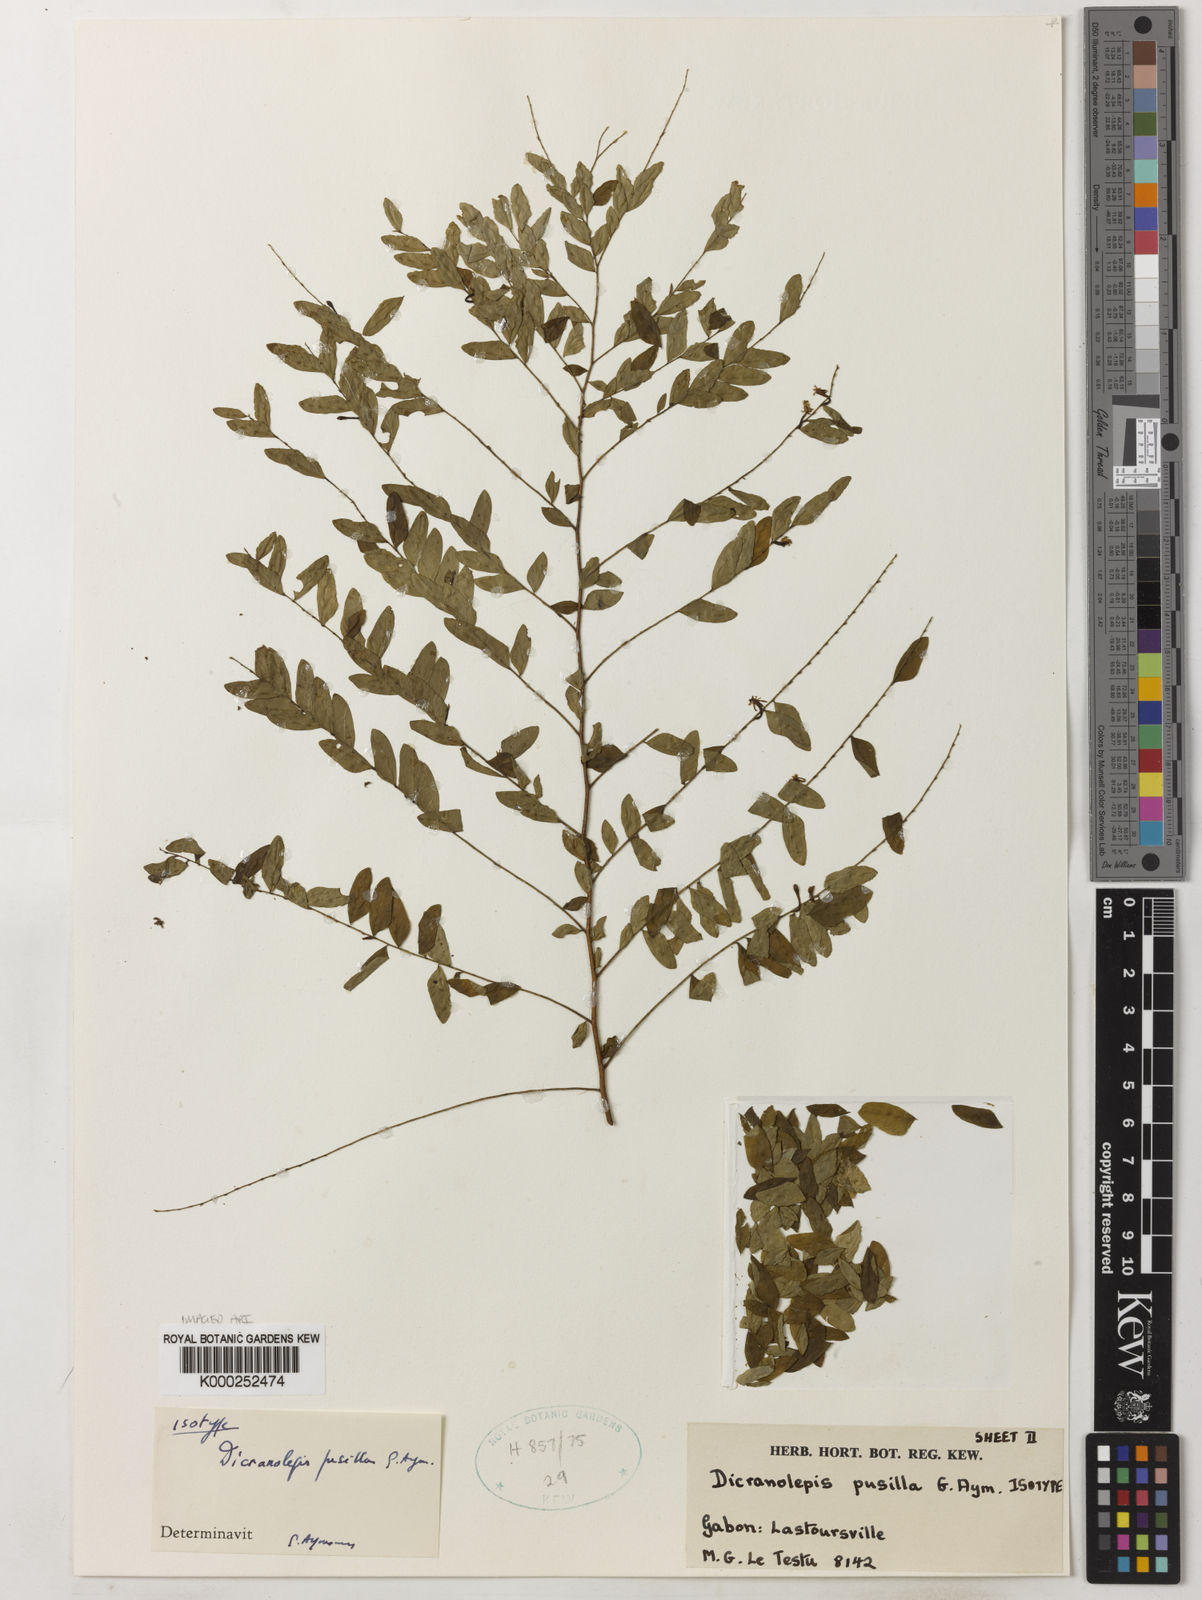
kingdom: Plantae
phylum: Tracheophyta
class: Magnoliopsida
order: Malvales
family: Thymelaeaceae
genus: Dicranolepis
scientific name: Dicranolepis pusilla
